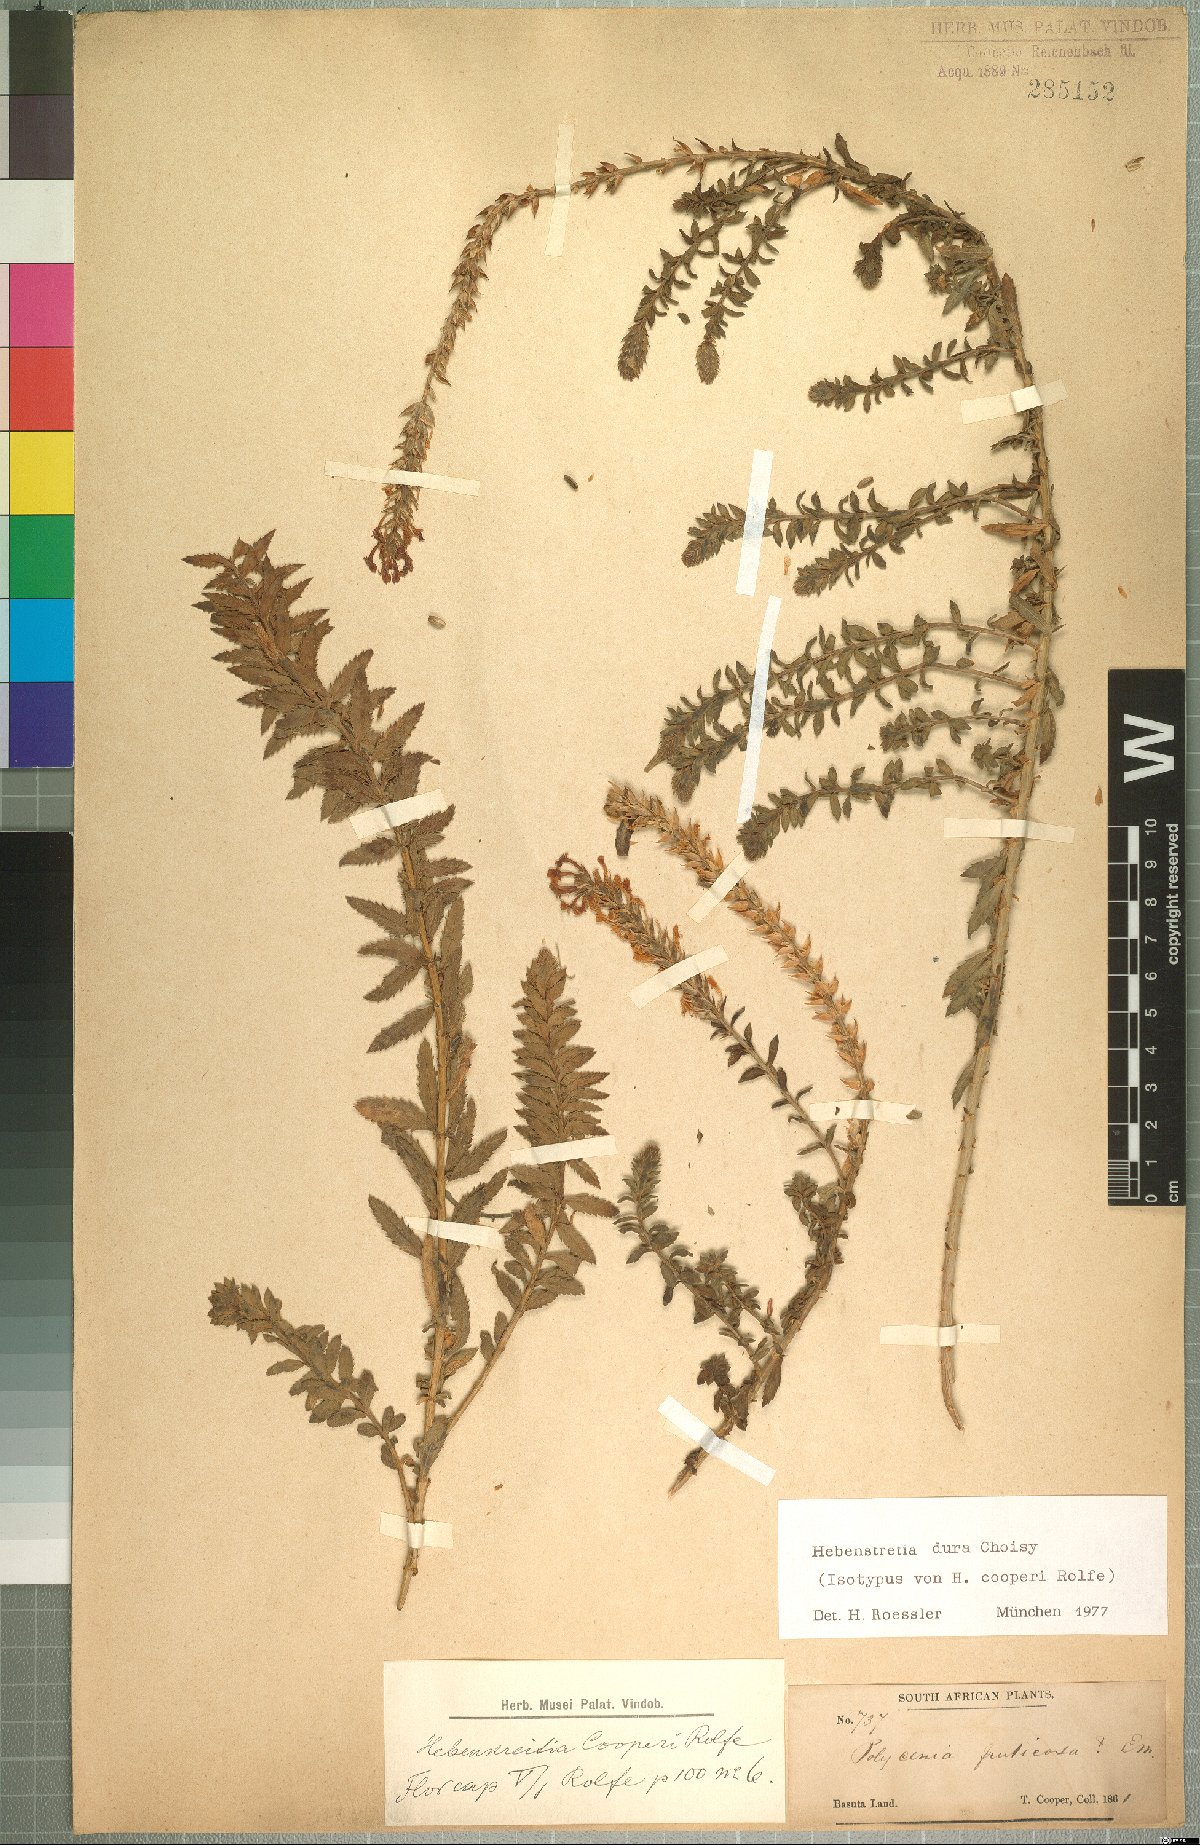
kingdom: Plantae
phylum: Tracheophyta
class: Magnoliopsida
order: Lamiales
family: Scrophulariaceae
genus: Hebenstretia
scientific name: Hebenstretia dura
